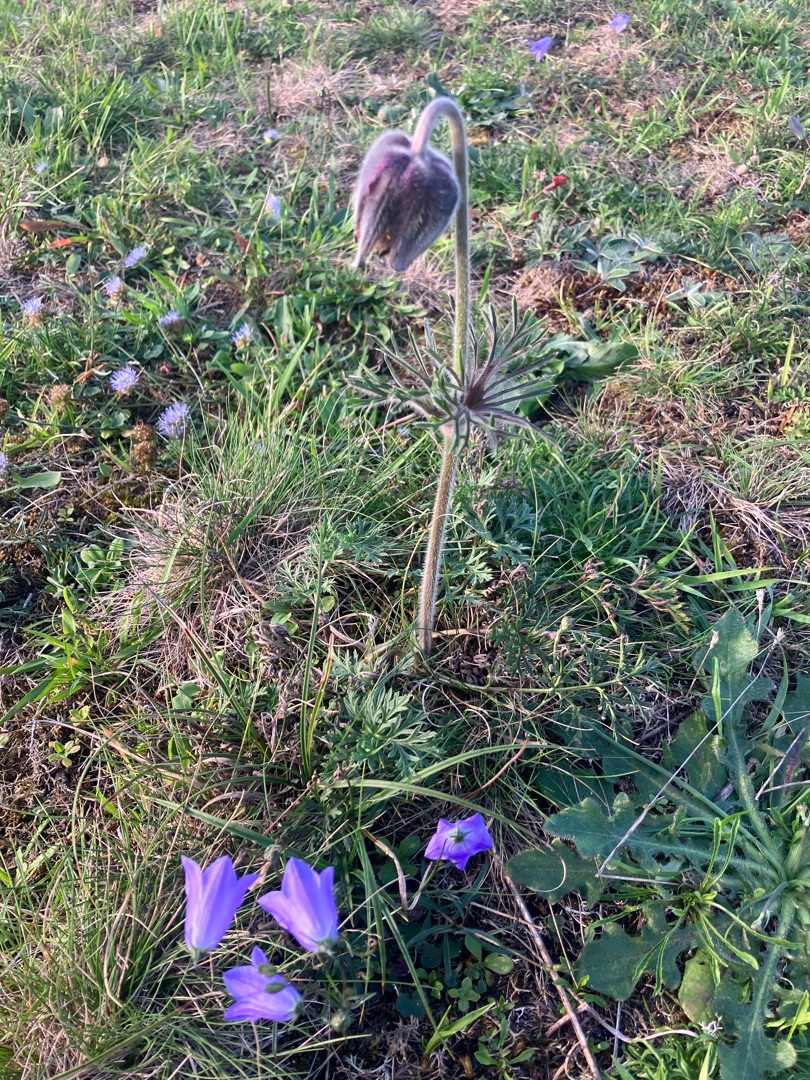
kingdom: Plantae
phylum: Tracheophyta
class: Magnoliopsida
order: Ranunculales
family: Ranunculaceae
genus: Pulsatilla
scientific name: Pulsatilla pratensis
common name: Nikkende kobjælde
